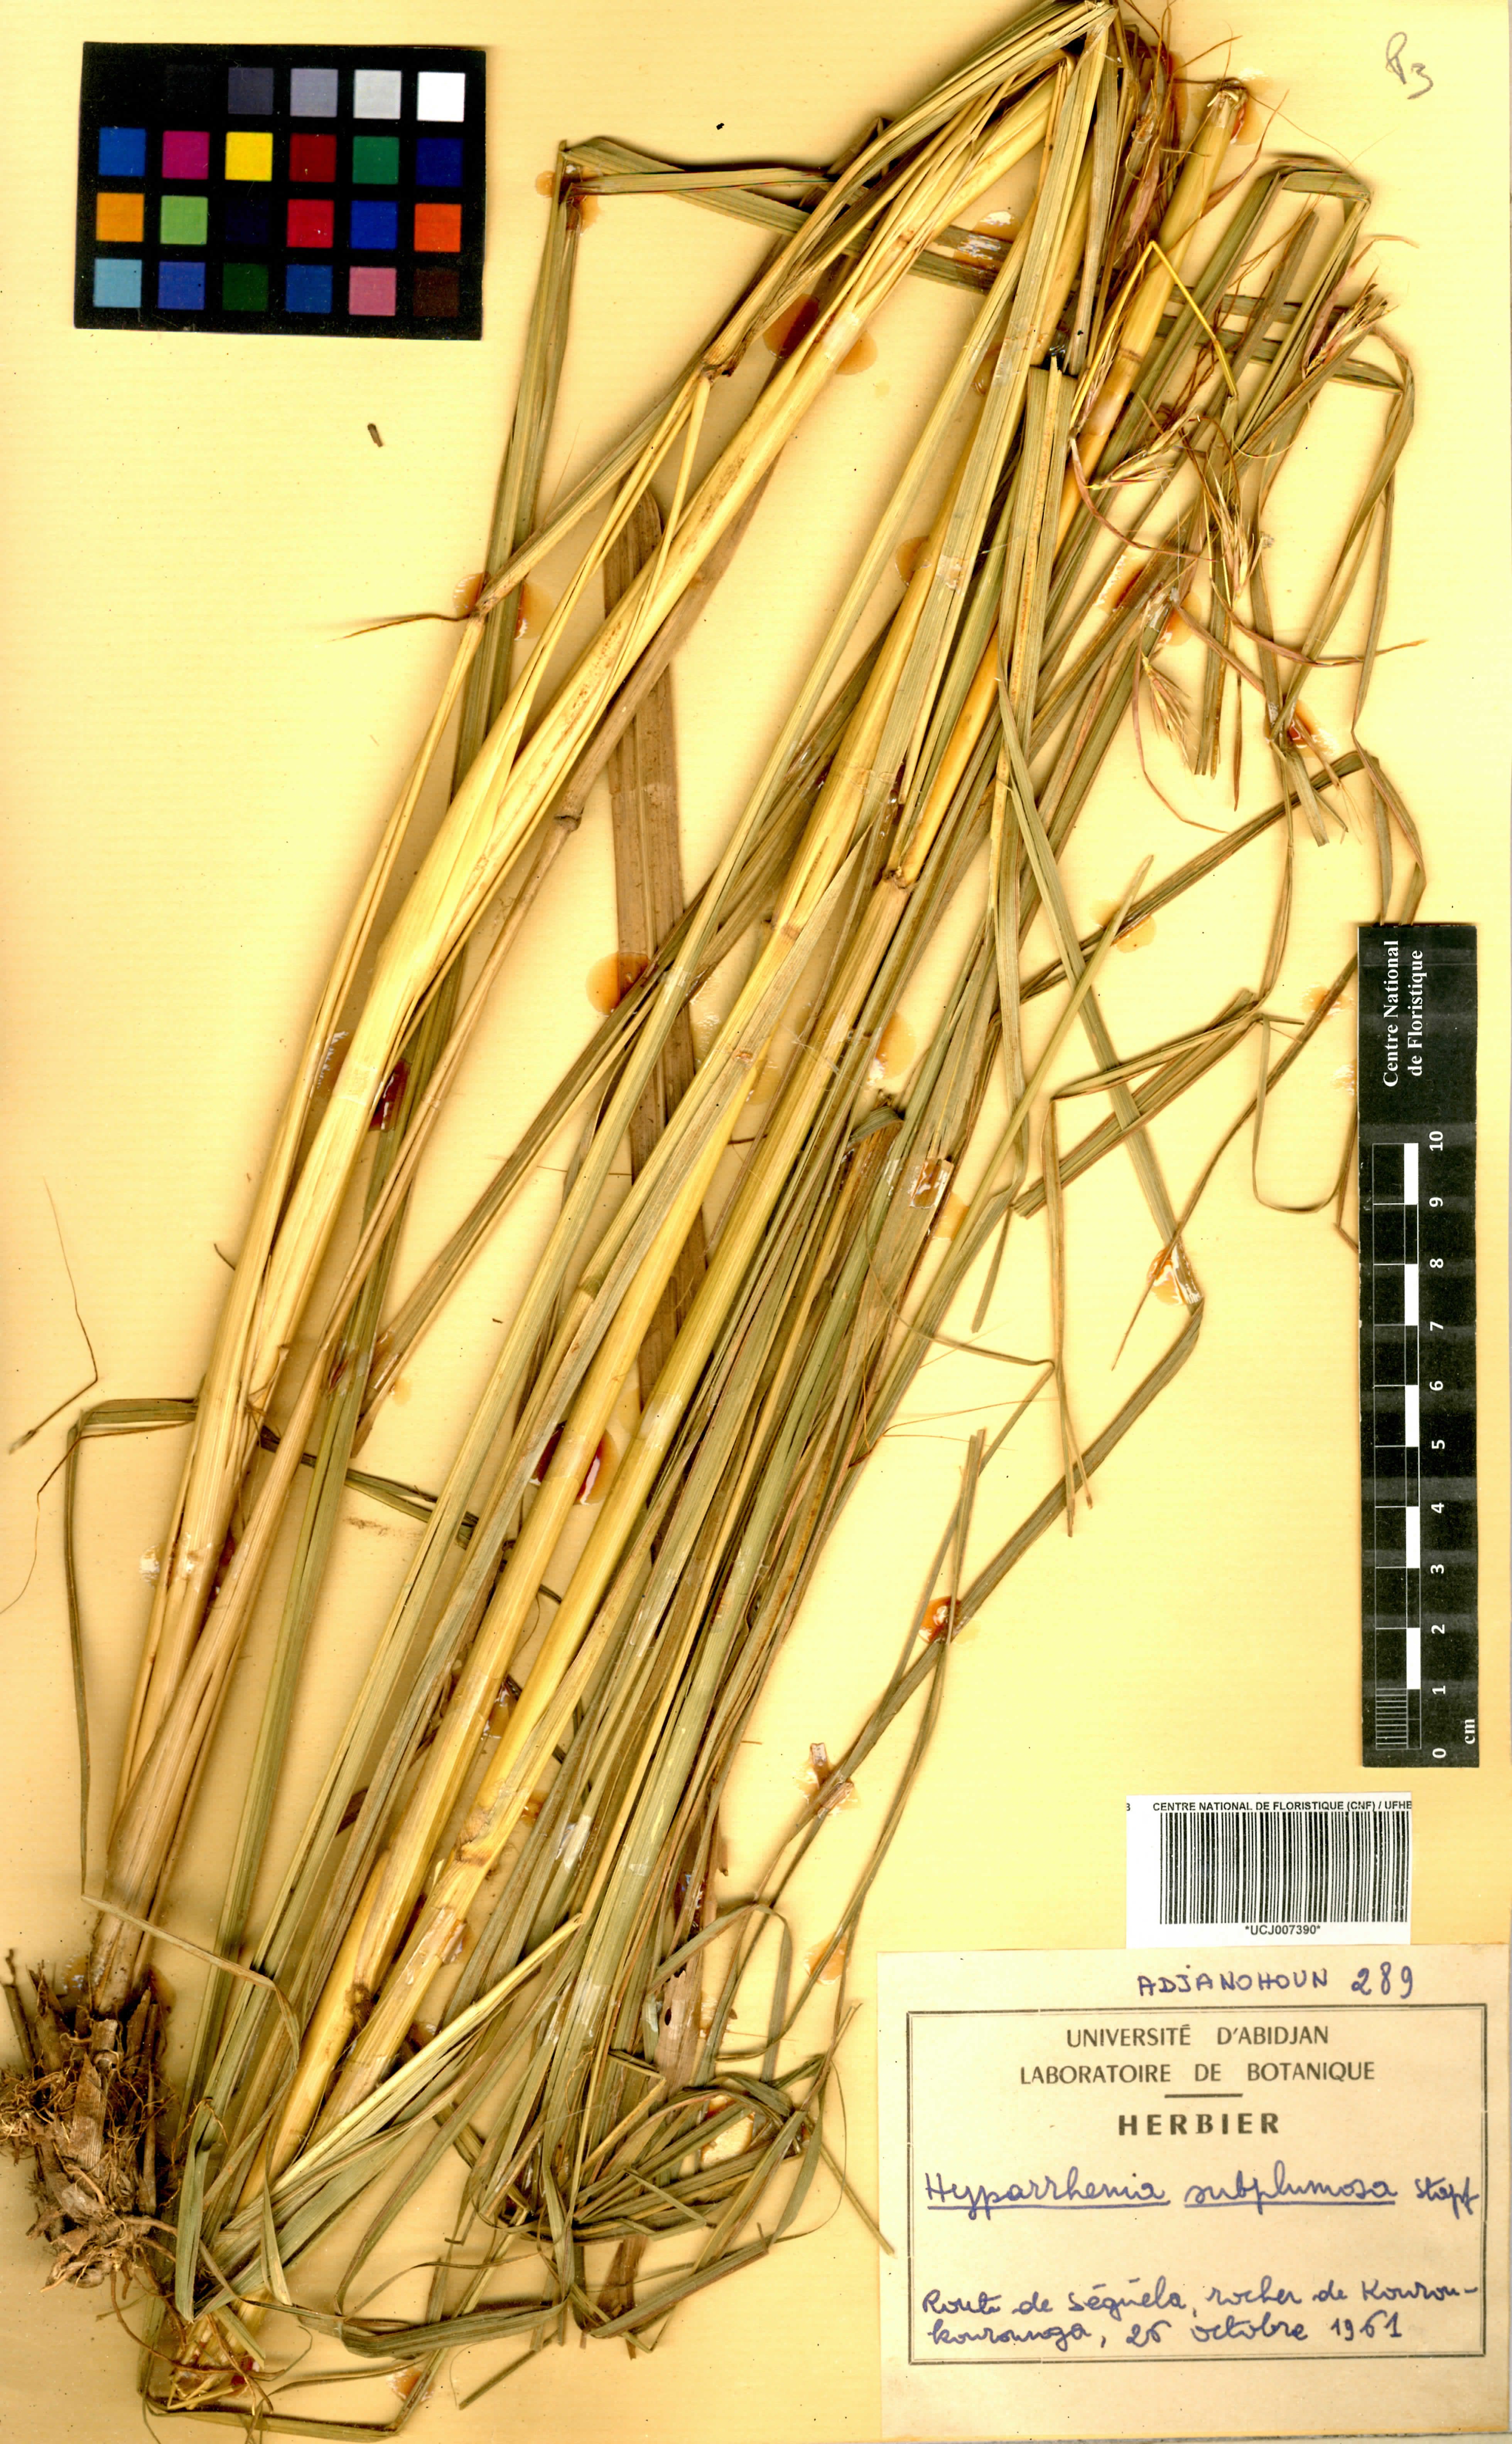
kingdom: Plantae
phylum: Tracheophyta
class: Liliopsida
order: Poales
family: Poaceae
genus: Hyparrhenia
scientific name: Hyparrhenia subplumosa
